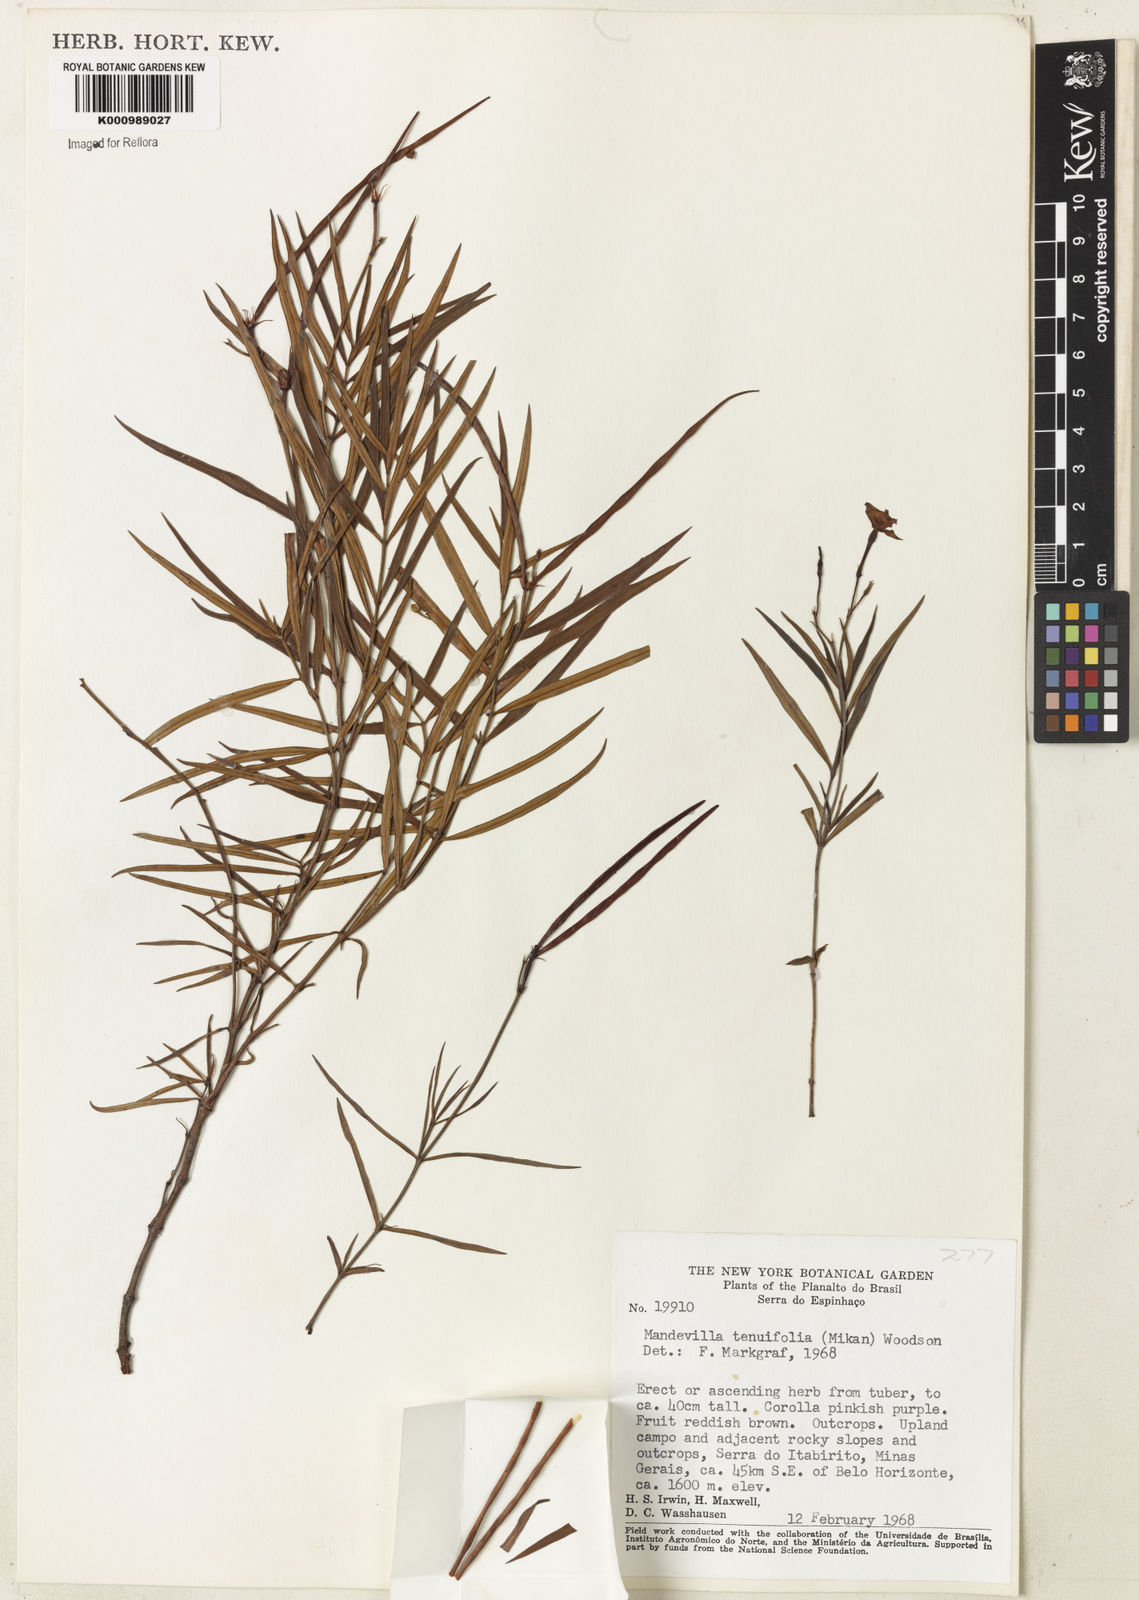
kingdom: Plantae
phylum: Tracheophyta
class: Magnoliopsida
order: Gentianales
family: Apocynaceae
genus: Mandevilla
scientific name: Mandevilla tenuifolia
